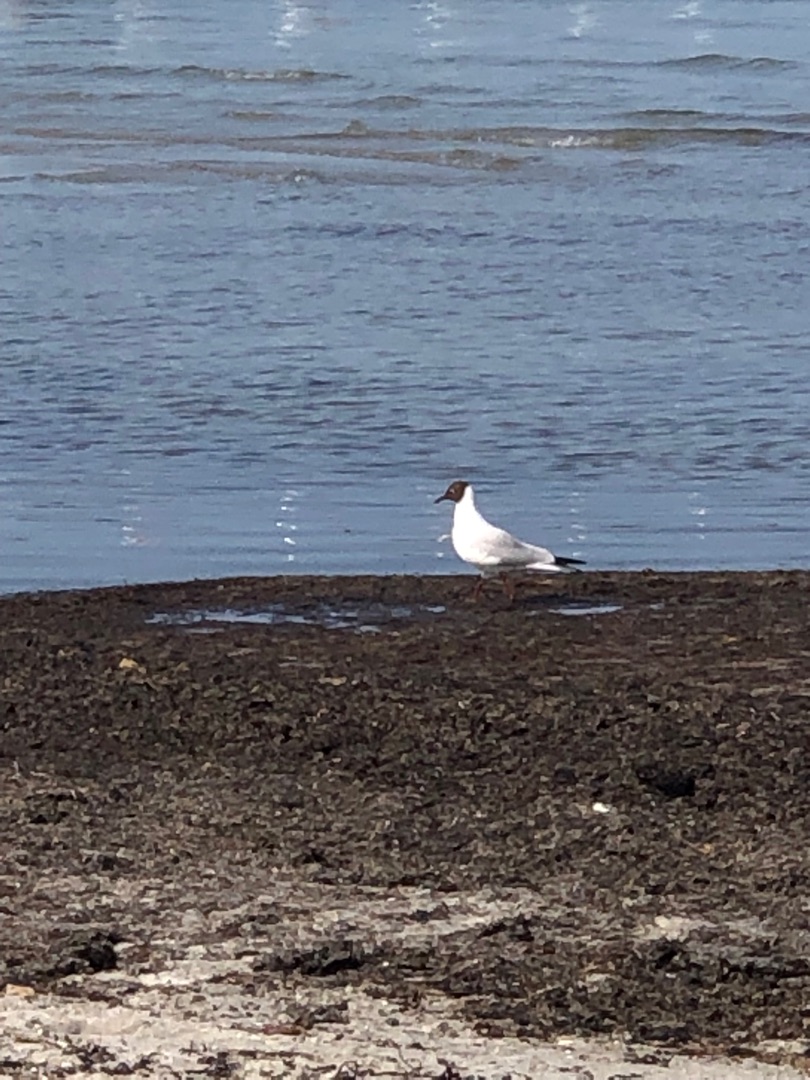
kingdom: Animalia
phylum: Chordata
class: Aves
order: Charadriiformes
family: Laridae
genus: Chroicocephalus
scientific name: Chroicocephalus ridibundus
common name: Hættemåge
